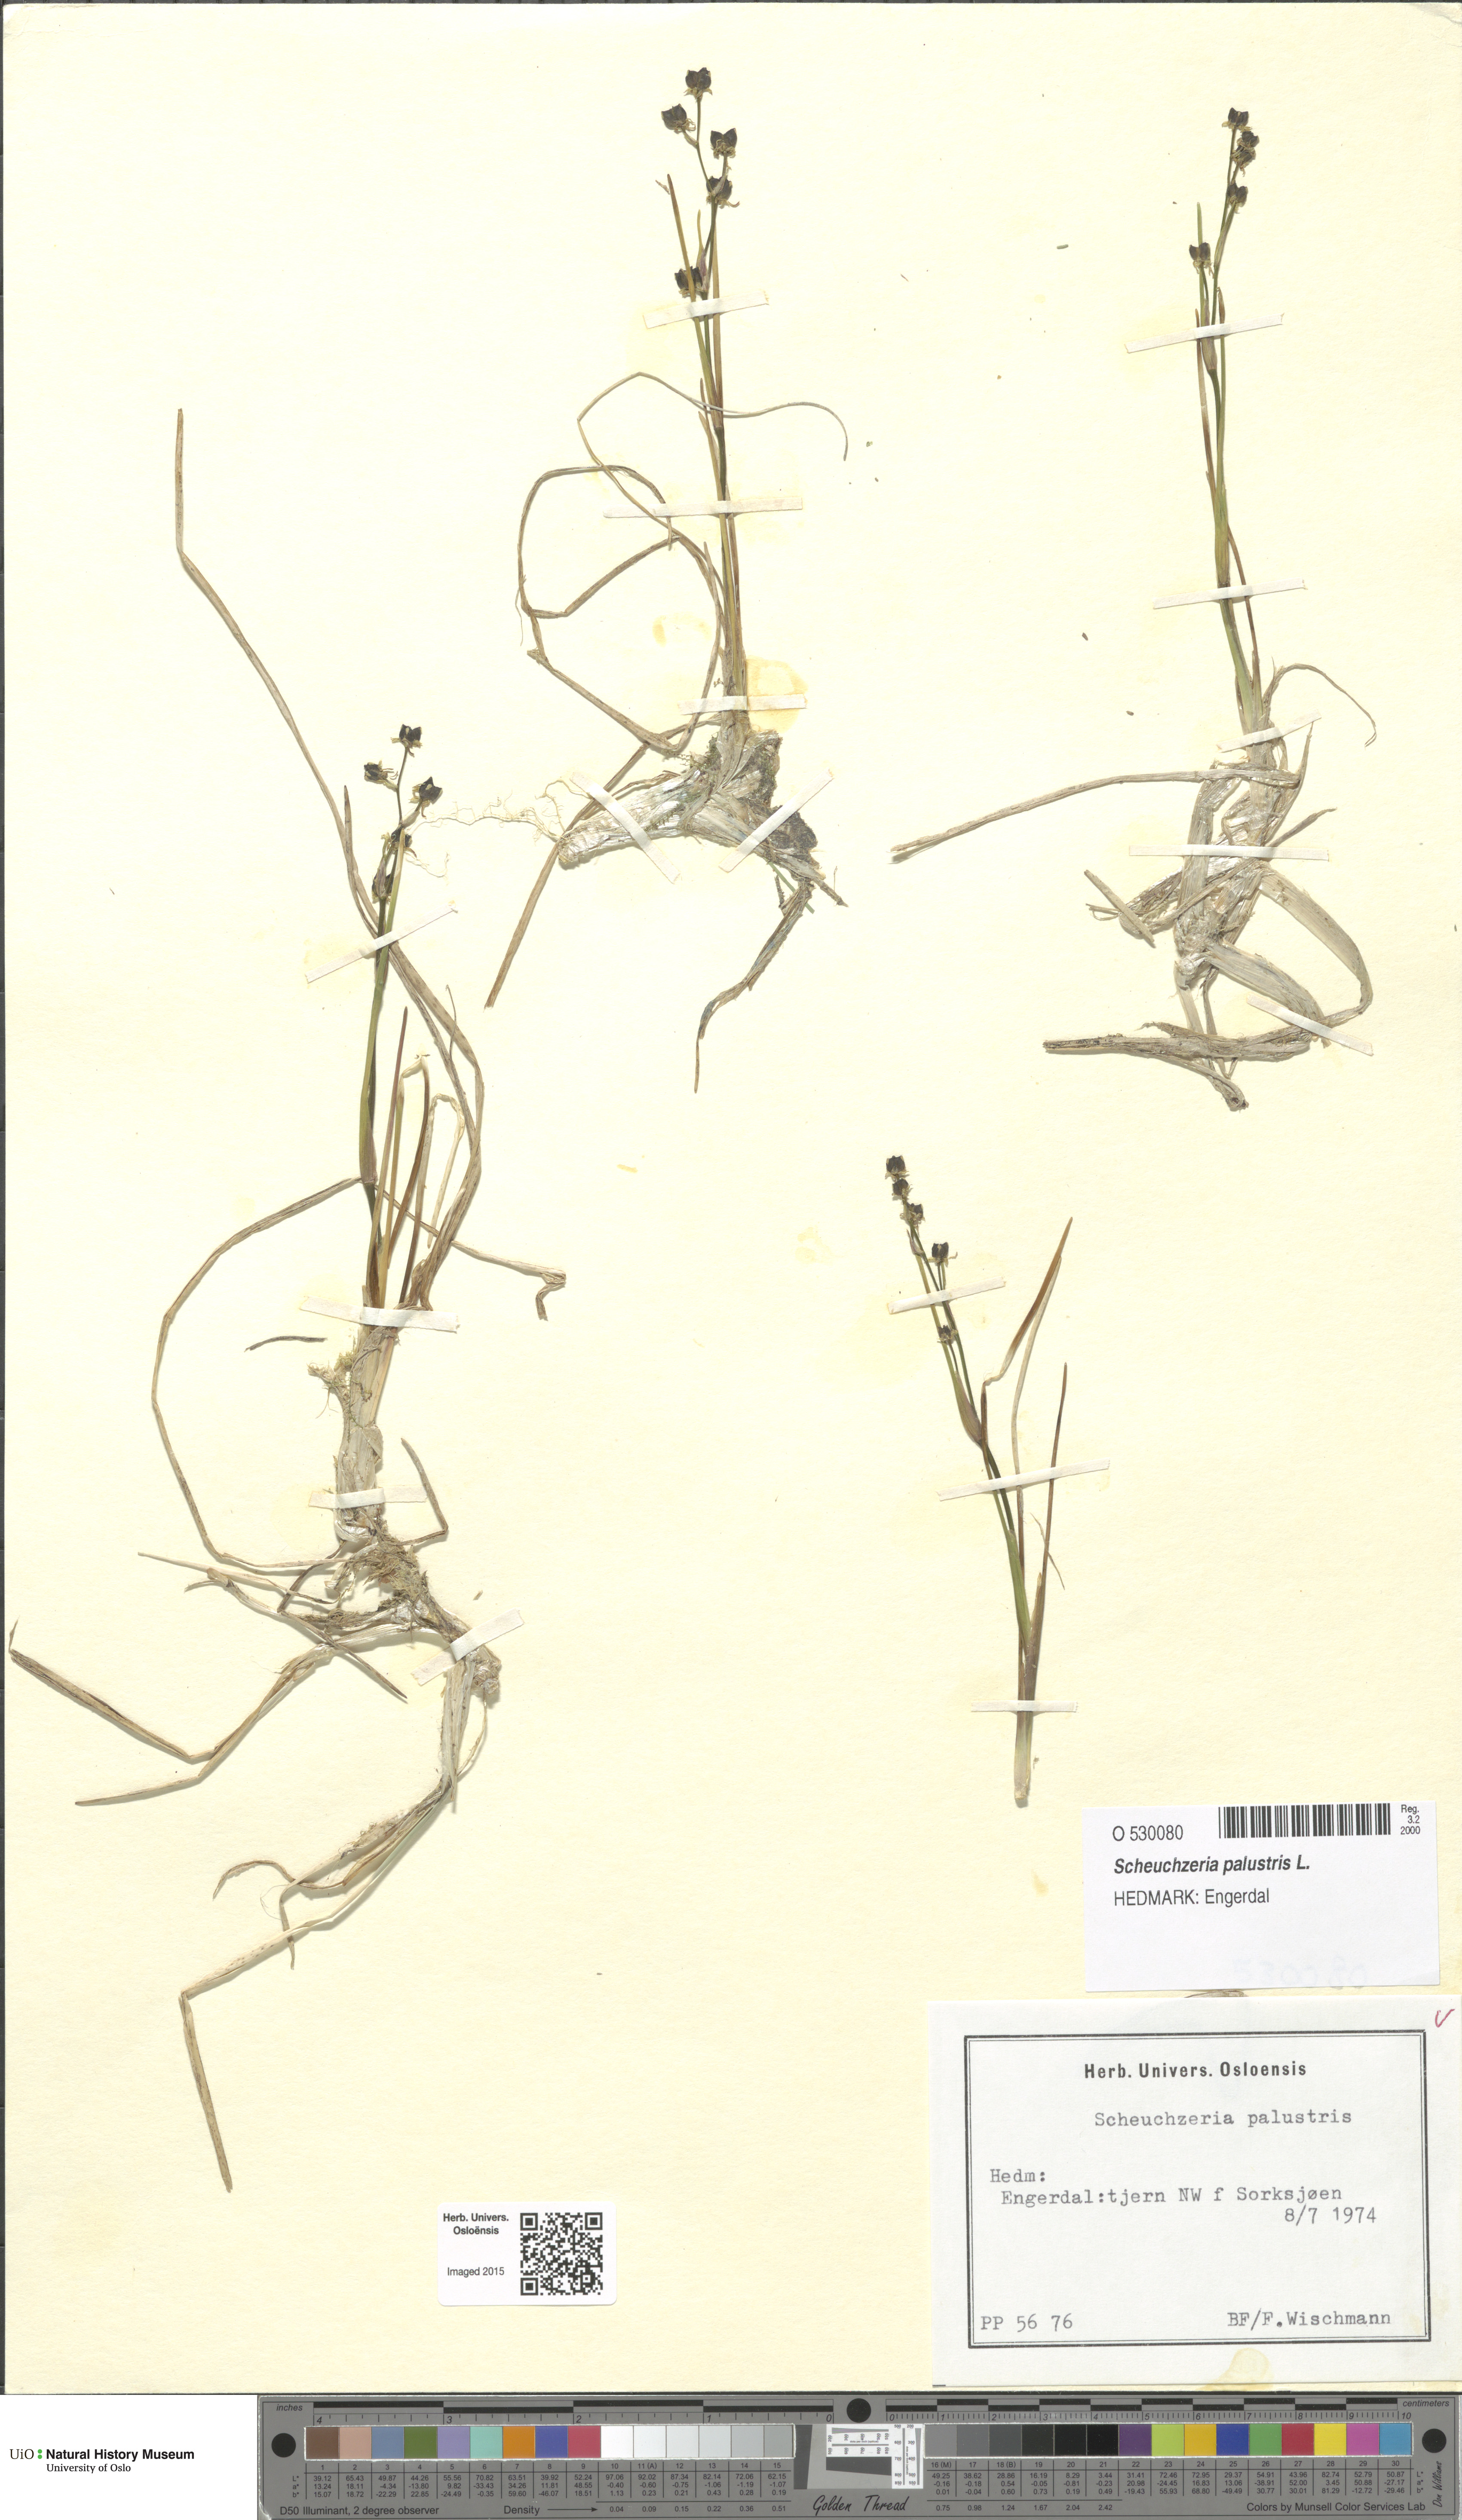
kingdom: Plantae
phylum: Tracheophyta
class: Liliopsida
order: Alismatales
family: Scheuchzeriaceae
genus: Scheuchzeria
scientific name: Scheuchzeria palustris
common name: Rannoch-rush
